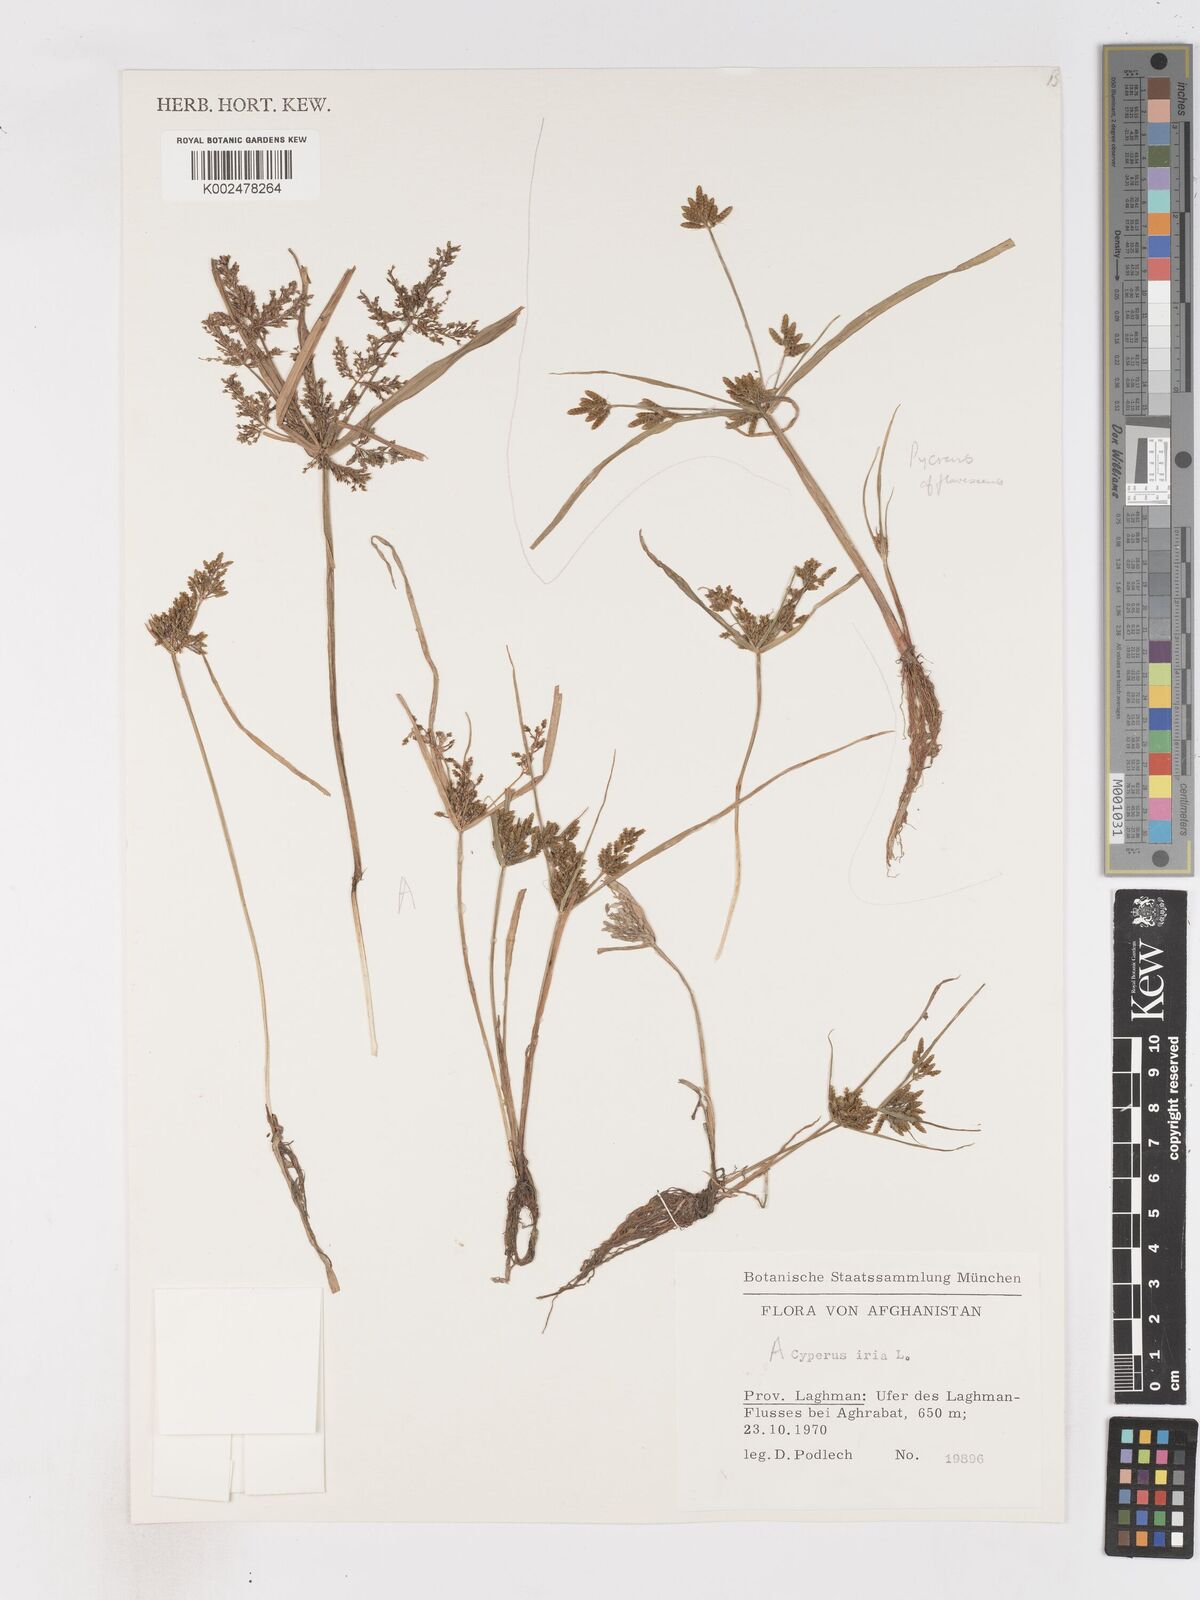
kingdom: Plantae
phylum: Tracheophyta
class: Liliopsida
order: Poales
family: Cyperaceae
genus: Cyperus
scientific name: Cyperus iria
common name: Ricefield flatsedge
